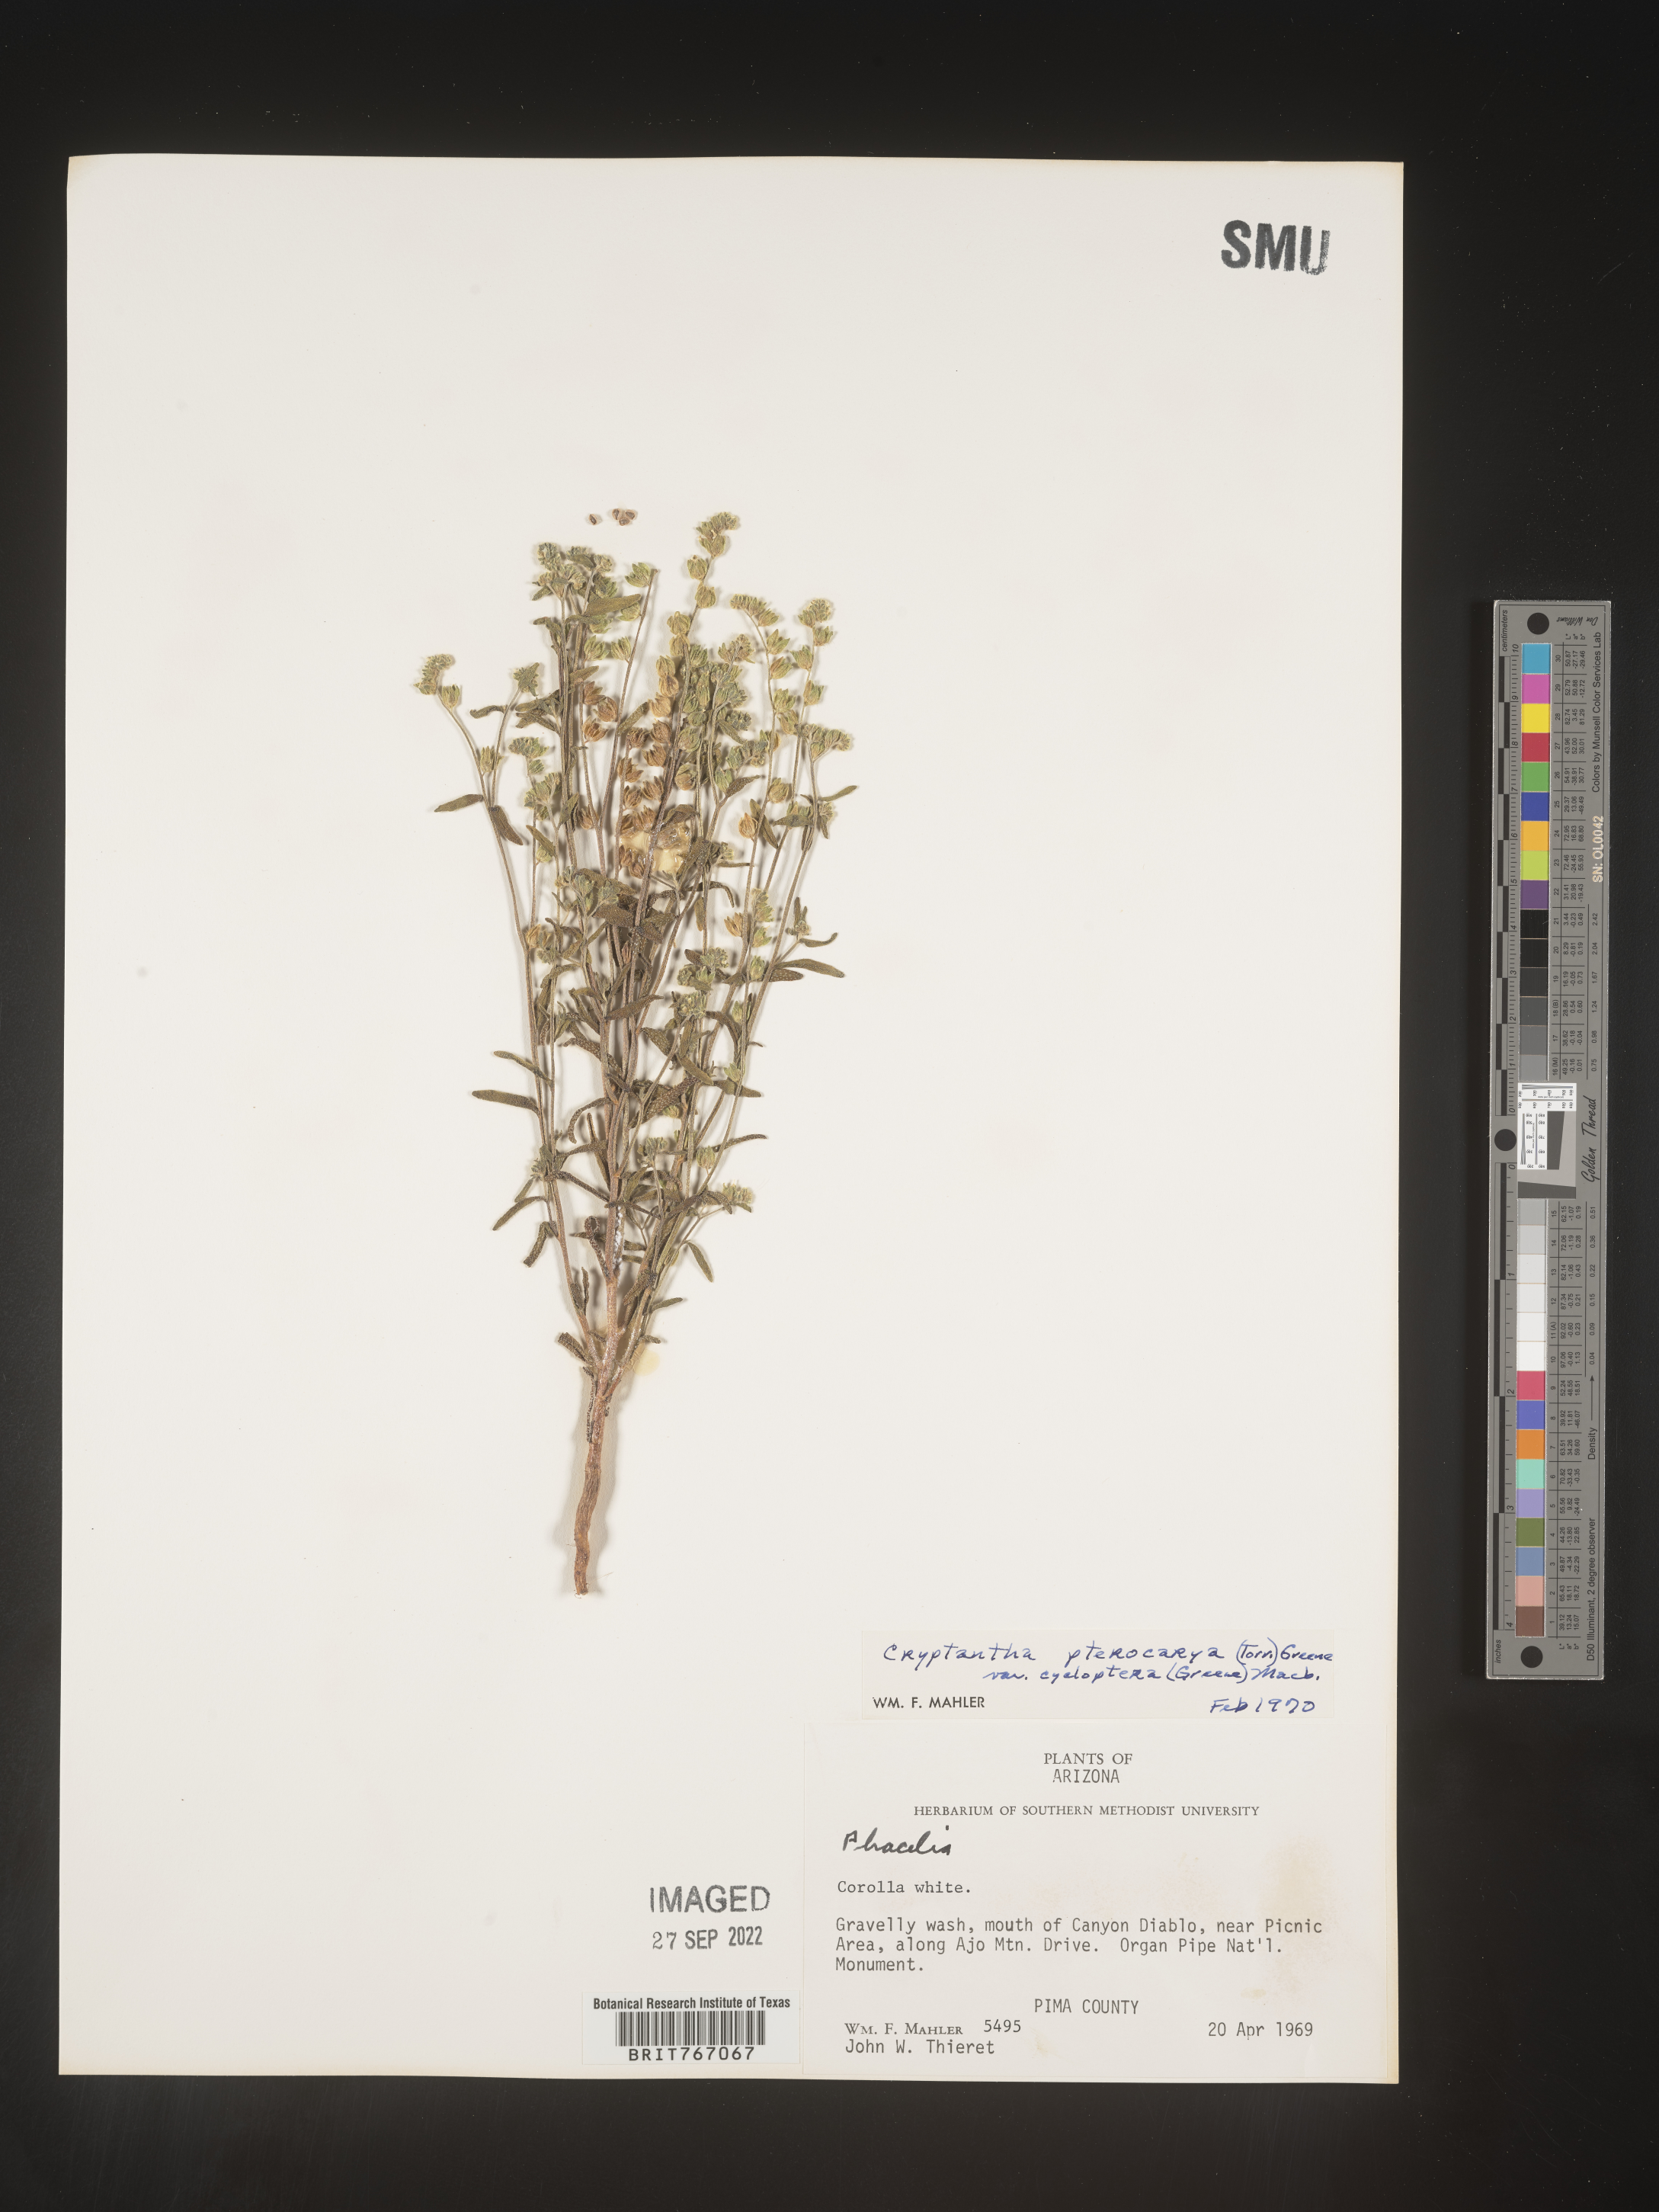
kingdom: Plantae
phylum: Tracheophyta
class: Magnoliopsida
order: Boraginales
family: Boraginaceae
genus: Cryptantha
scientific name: Cryptantha pterocarya
